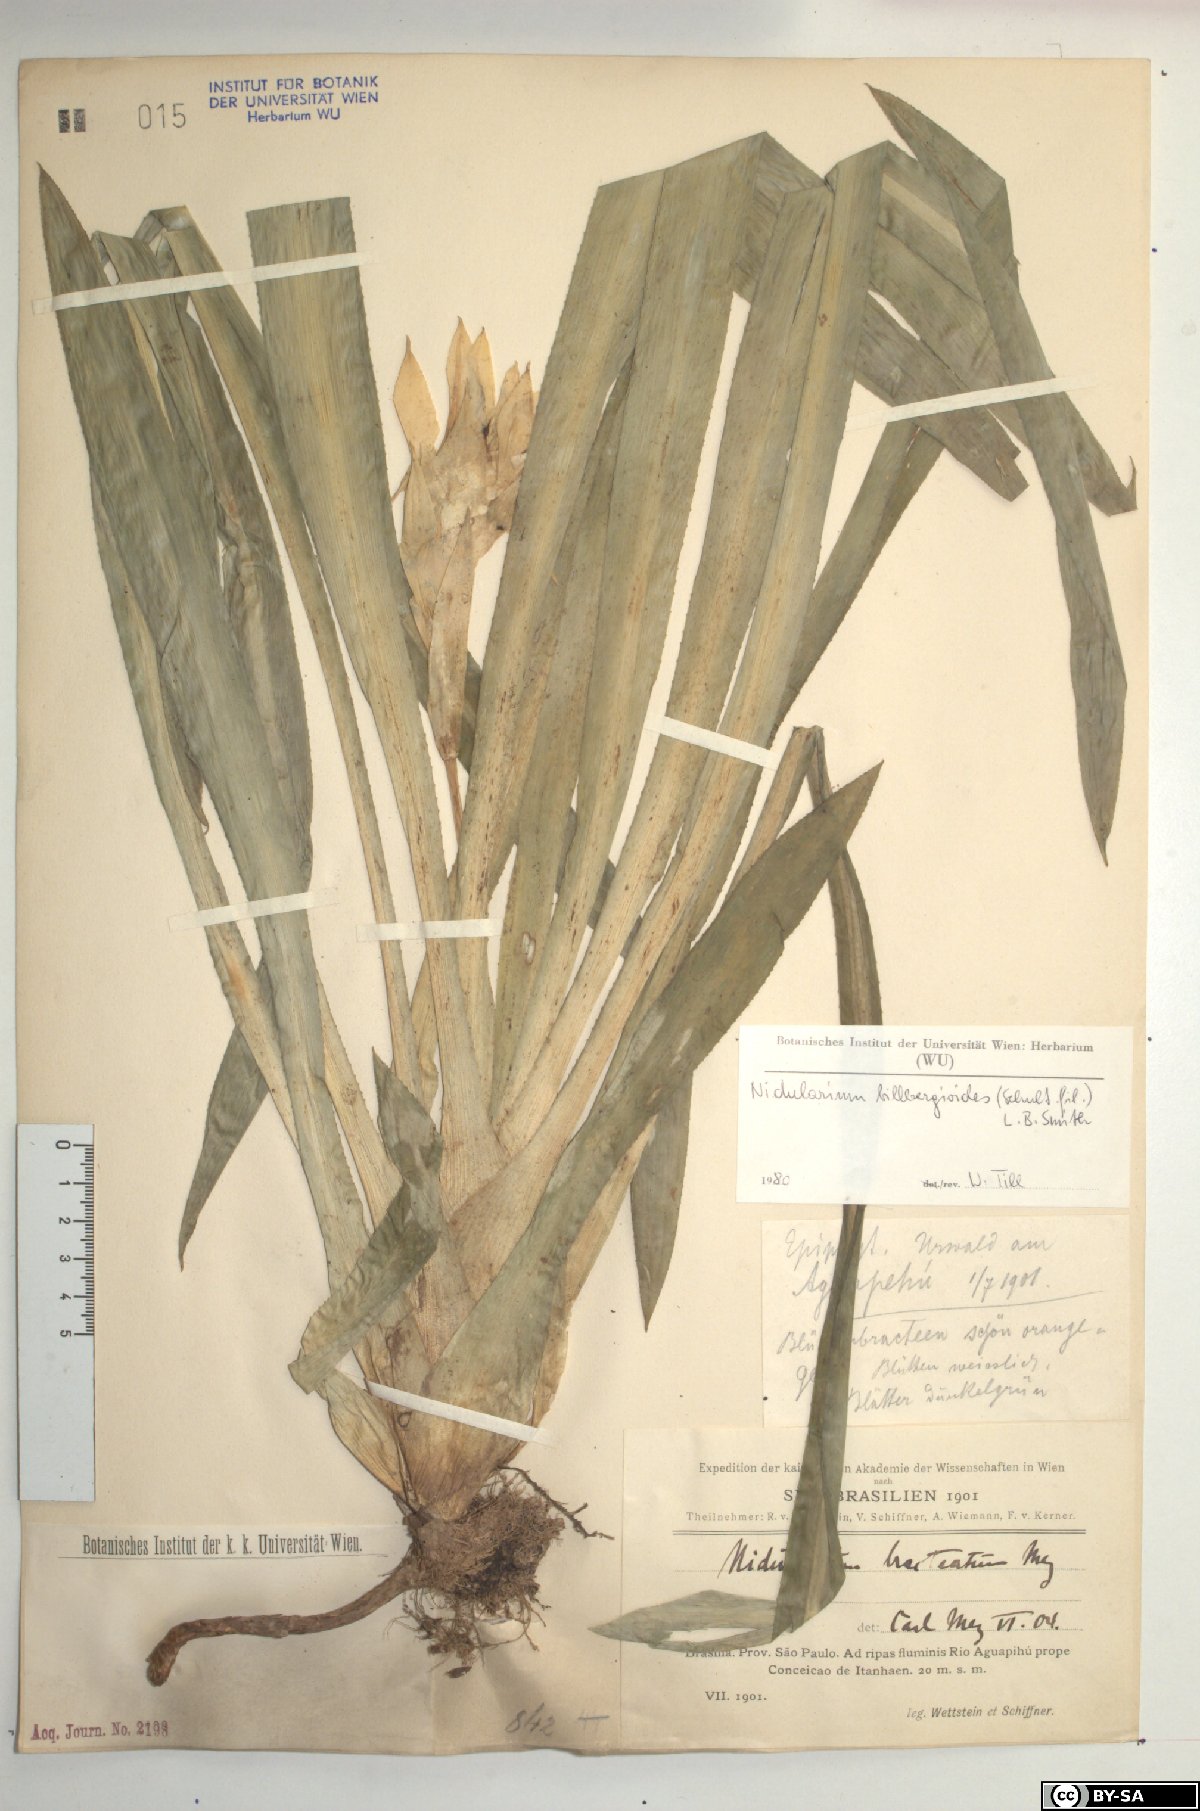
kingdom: Plantae
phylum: Tracheophyta
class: Liliopsida
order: Poales
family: Bromeliaceae
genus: Canistropsis
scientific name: Canistropsis billbergioides
